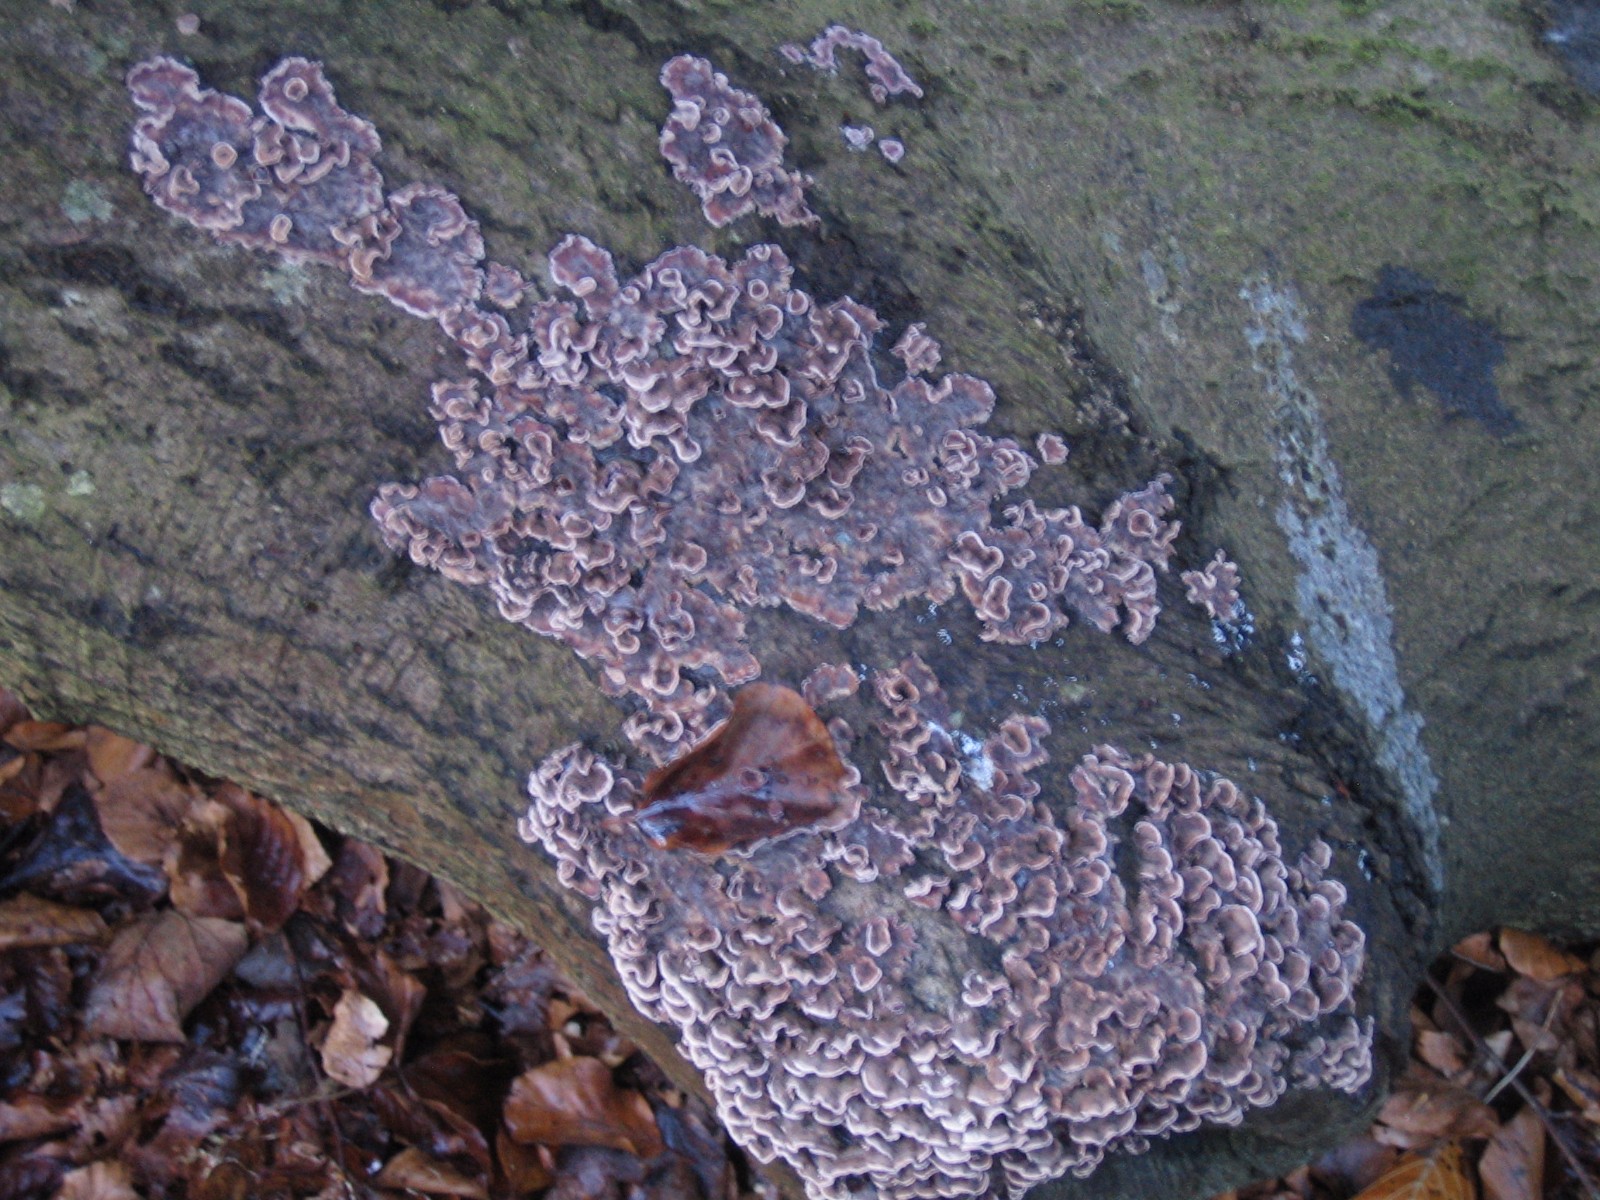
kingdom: Fungi
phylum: Basidiomycota
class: Agaricomycetes
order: Agaricales
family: Cyphellaceae
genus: Chondrostereum
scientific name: Chondrostereum purpureum
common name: purpurlædersvamp
